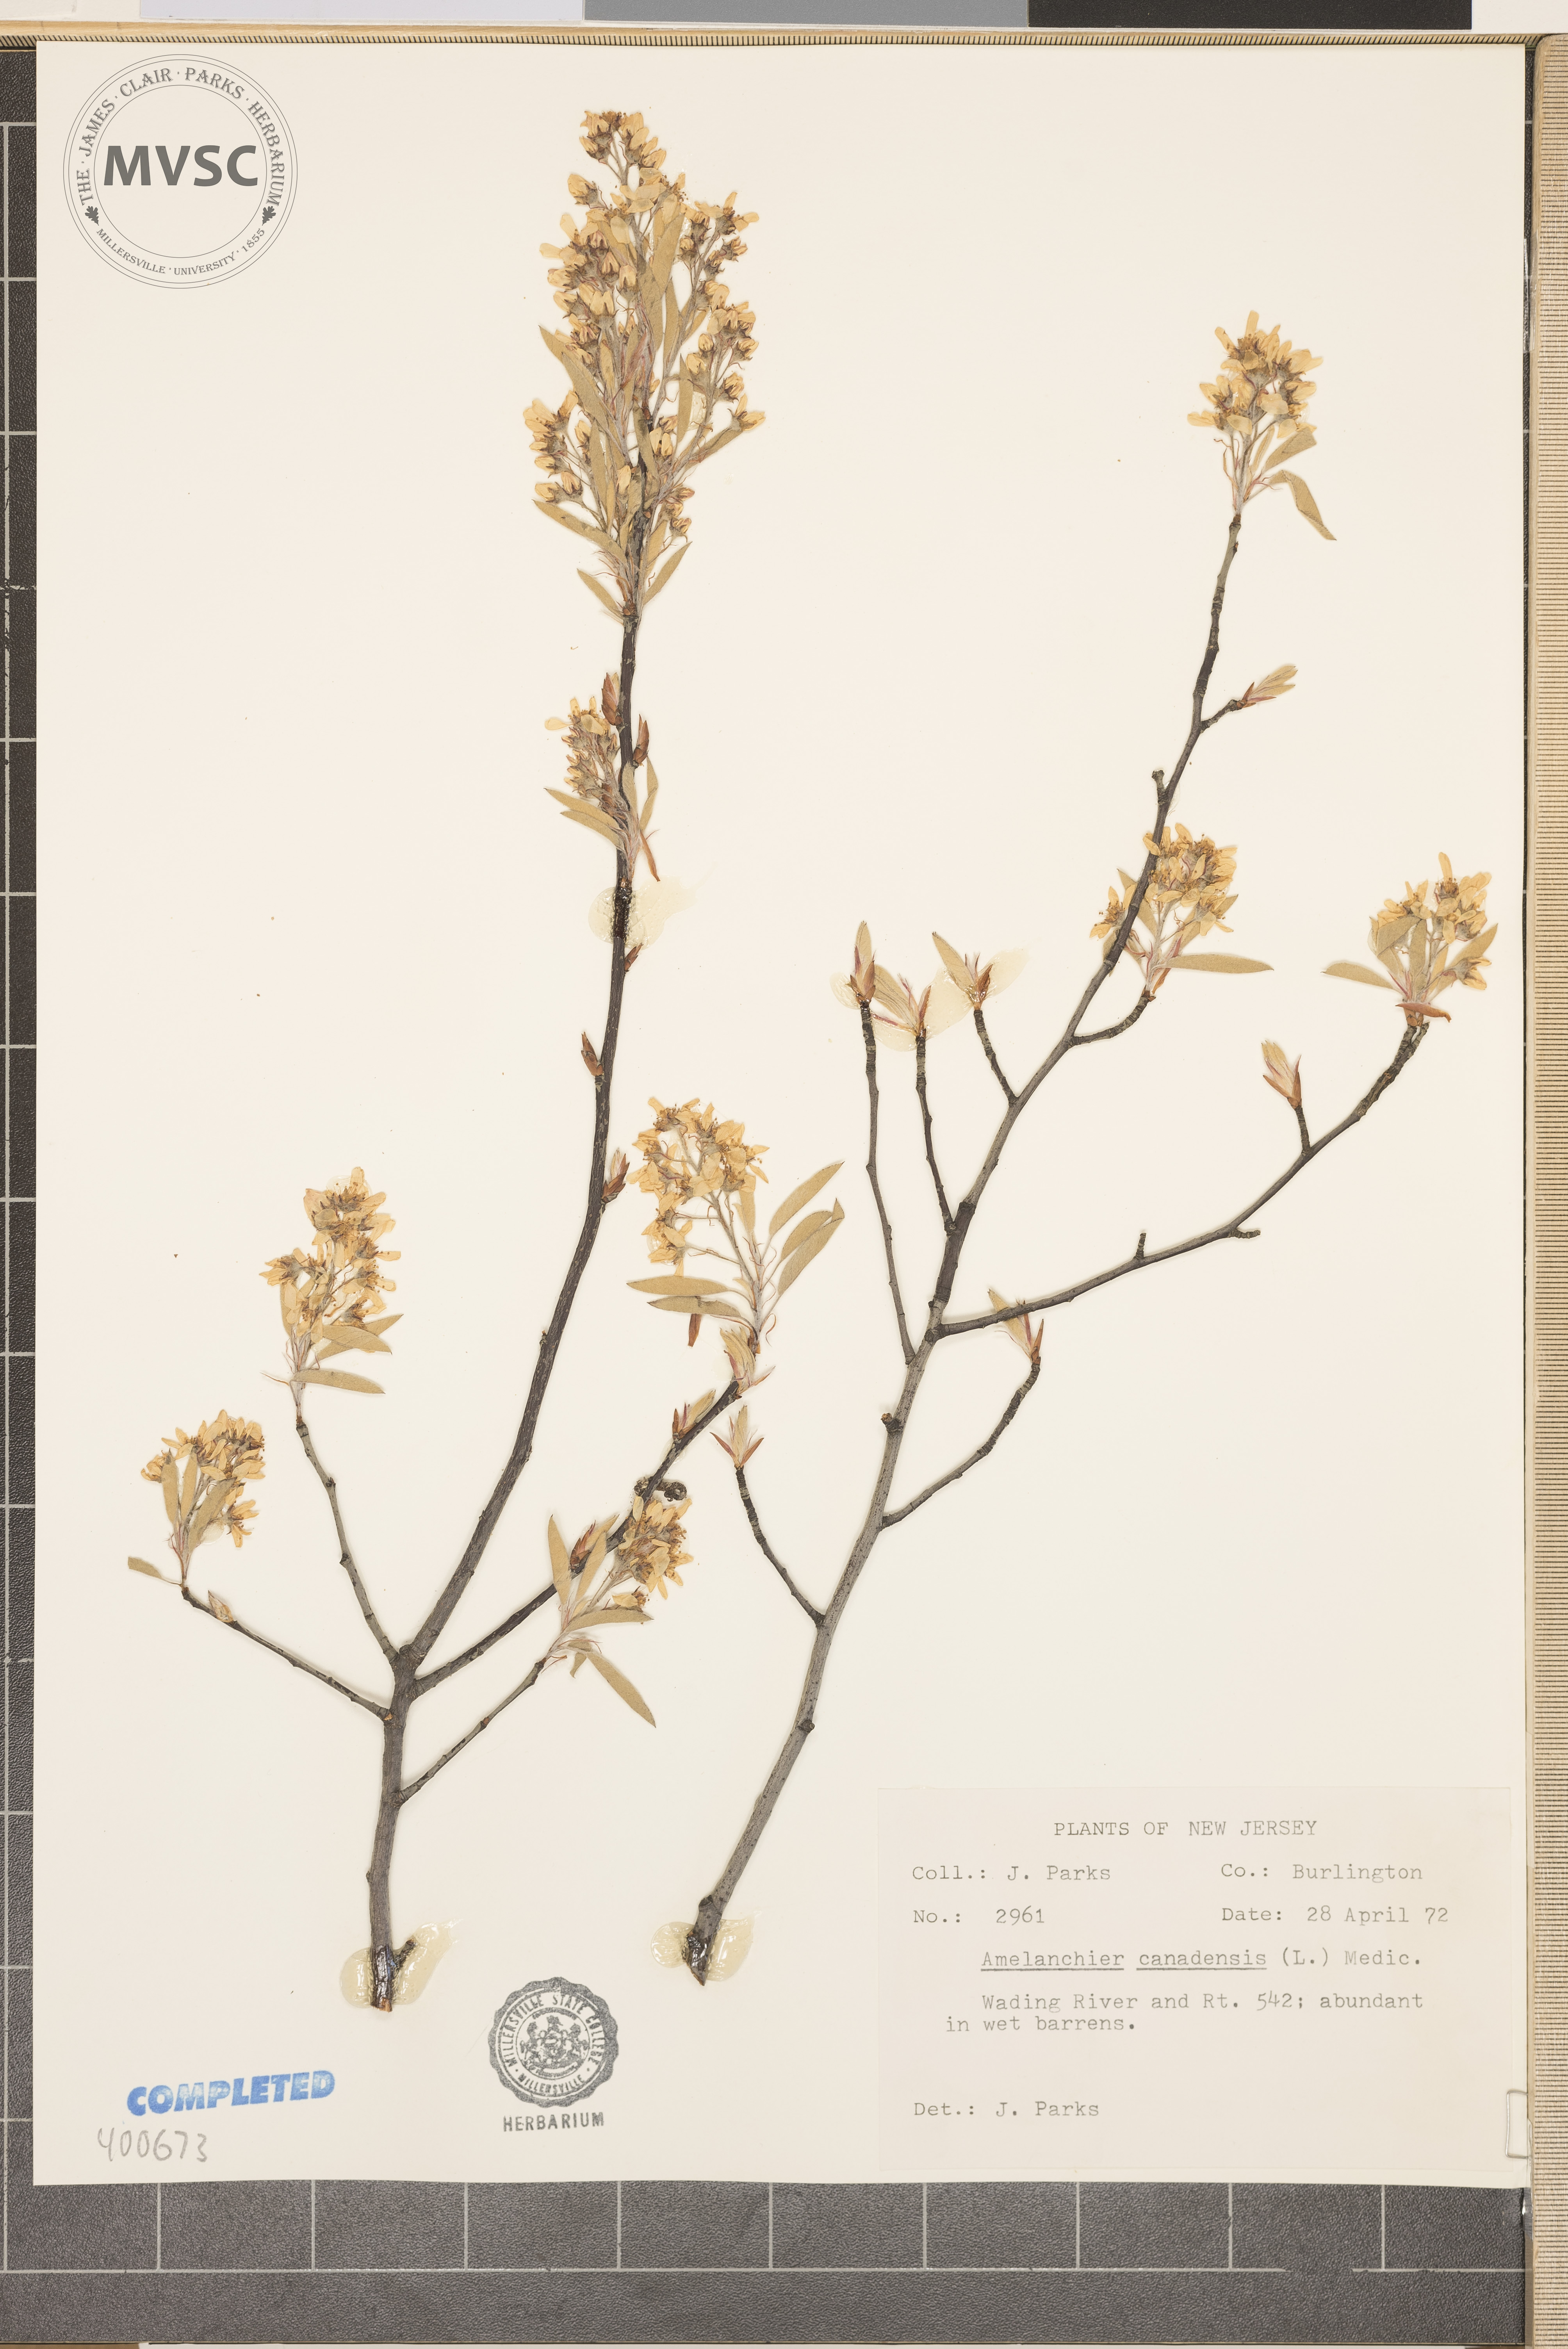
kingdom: Plantae
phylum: Tracheophyta
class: Magnoliopsida
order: Rosales
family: Rosaceae
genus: Amelanchier
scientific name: Amelanchier canadensis
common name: serviceberry
